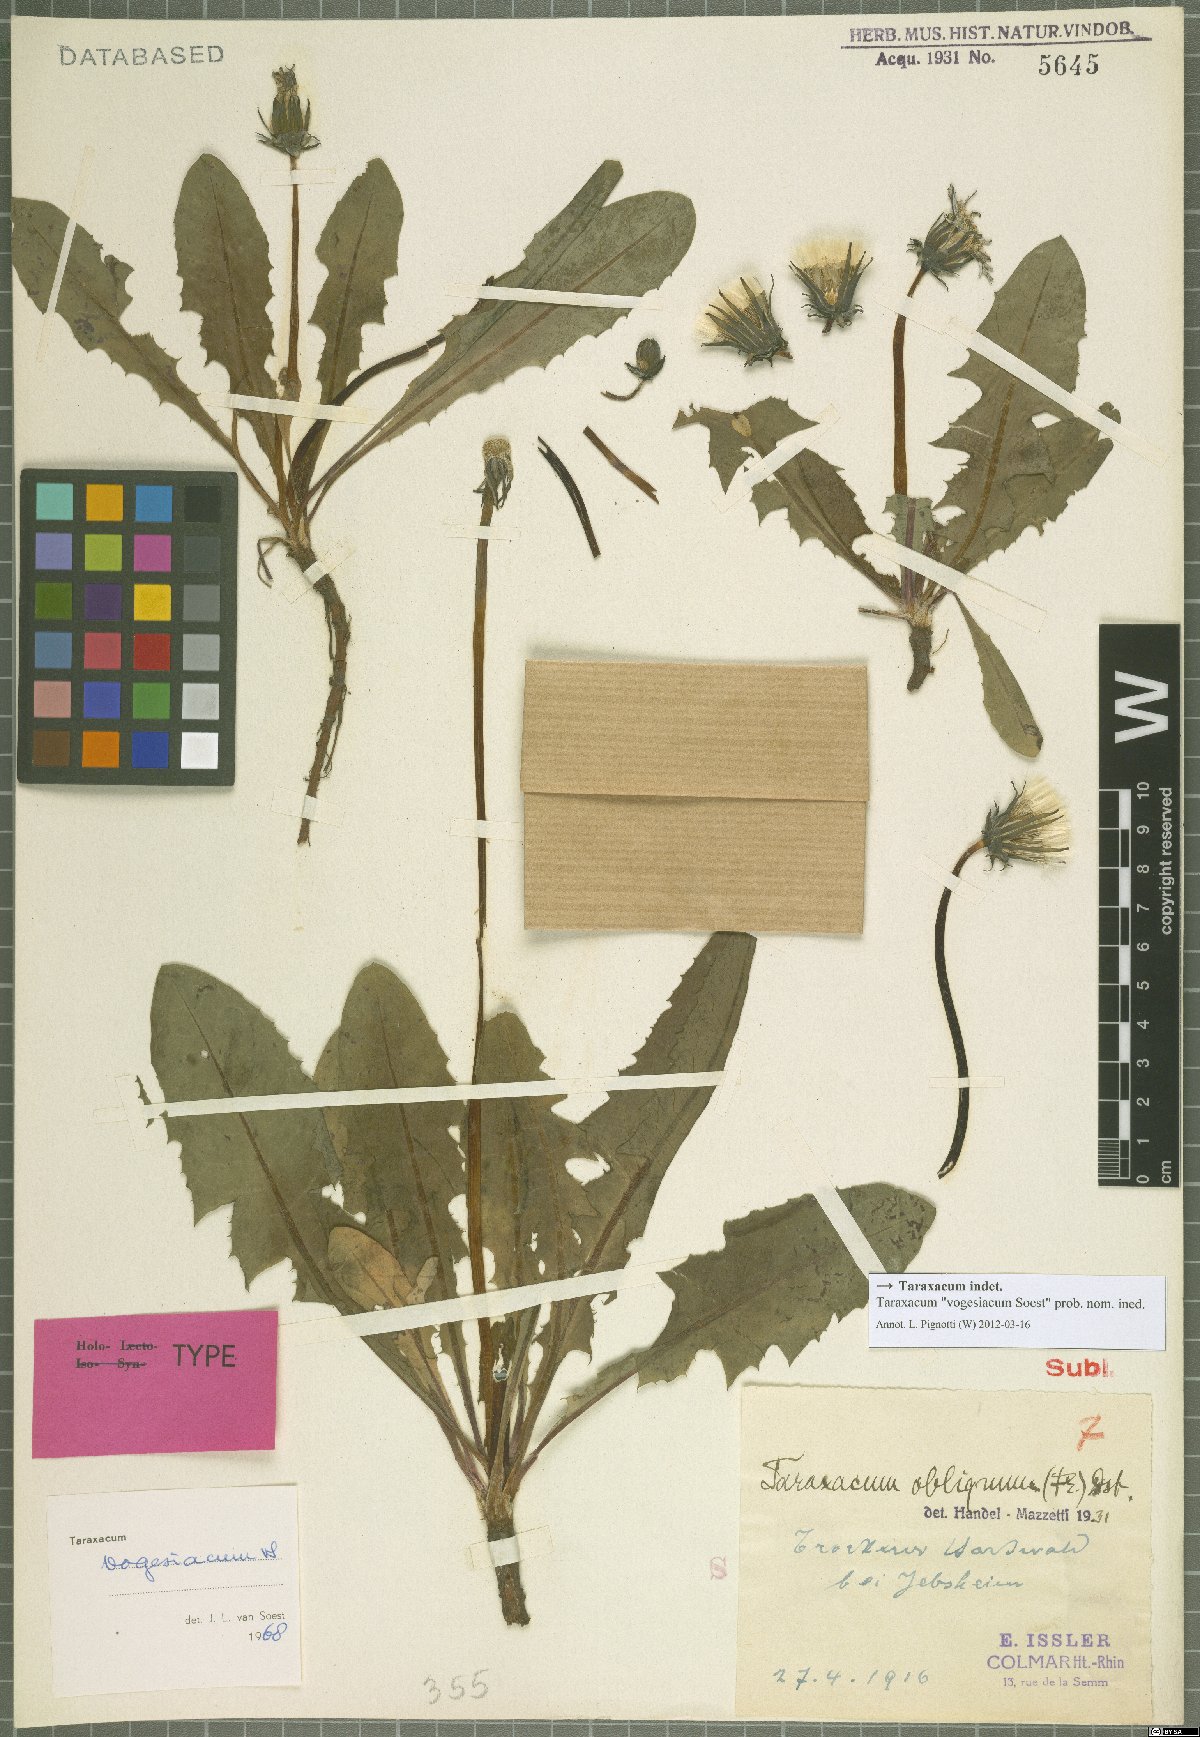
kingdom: Plantae
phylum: Tracheophyta
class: Magnoliopsida
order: Asterales
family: Asteraceae
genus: Taraxacum
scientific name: Taraxacum
